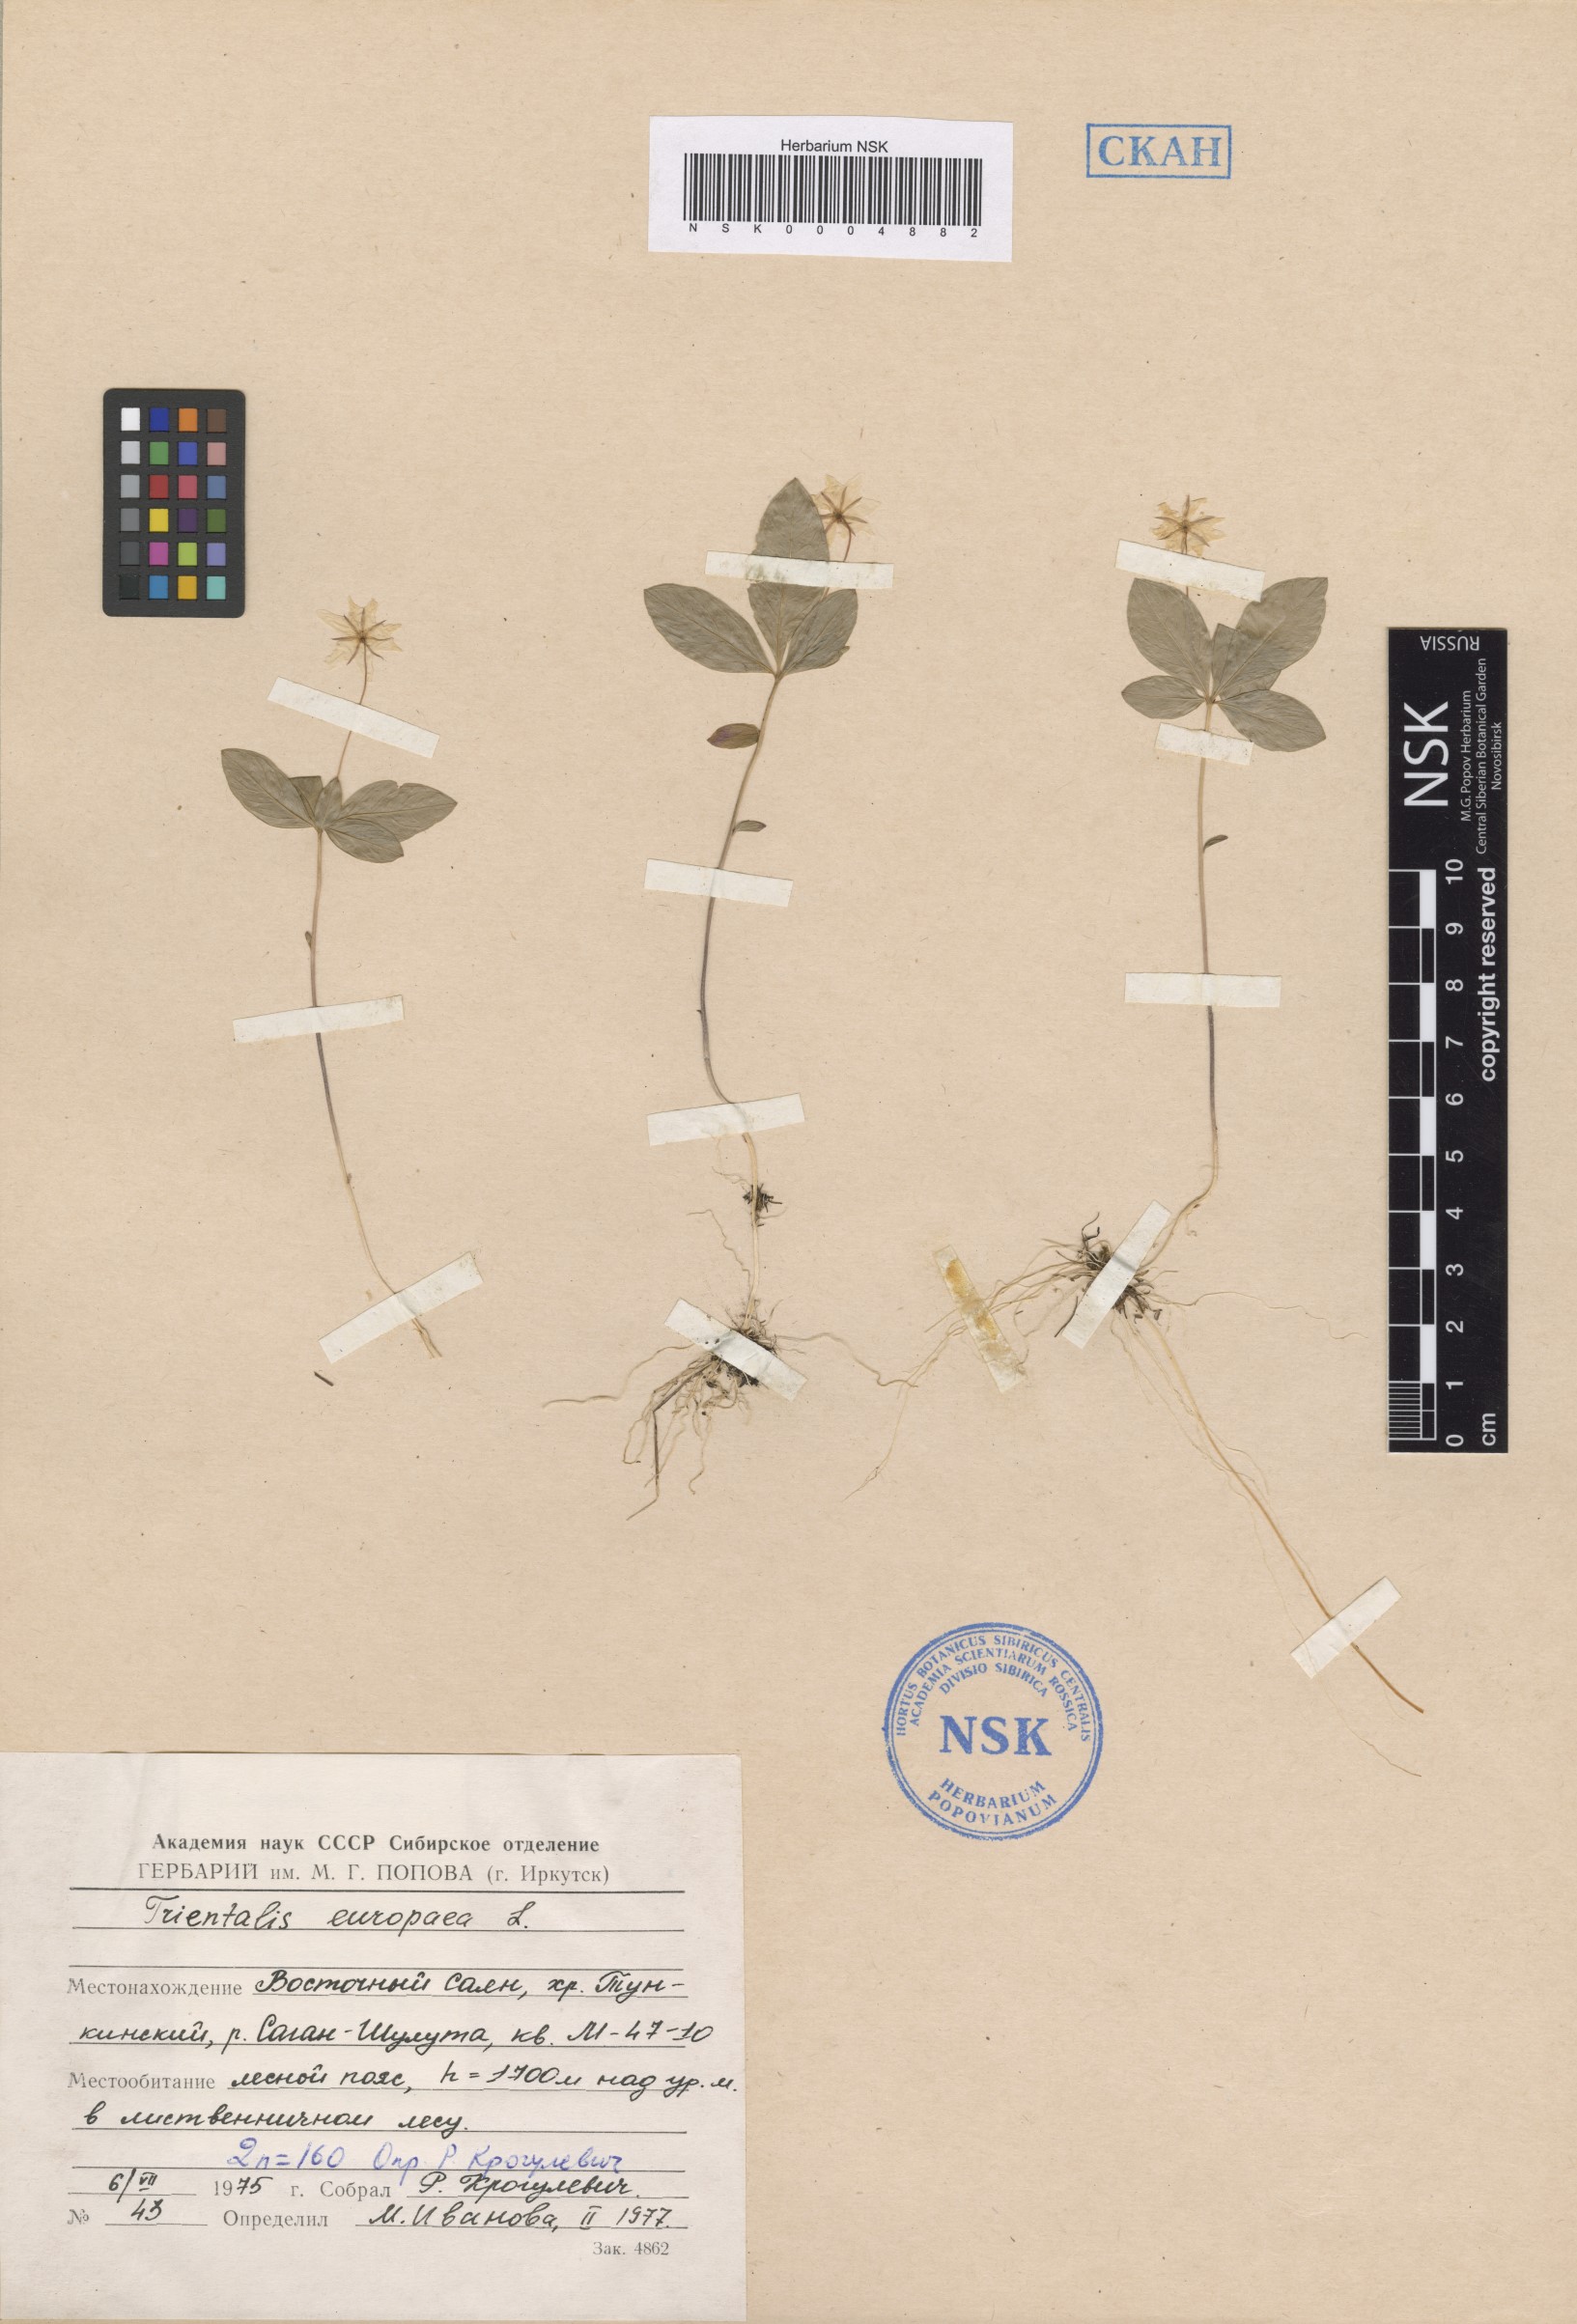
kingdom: Plantae
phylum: Tracheophyta
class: Magnoliopsida
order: Ericales
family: Primulaceae
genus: Lysimachia
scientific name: Lysimachia europaea
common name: Arctic starflower
